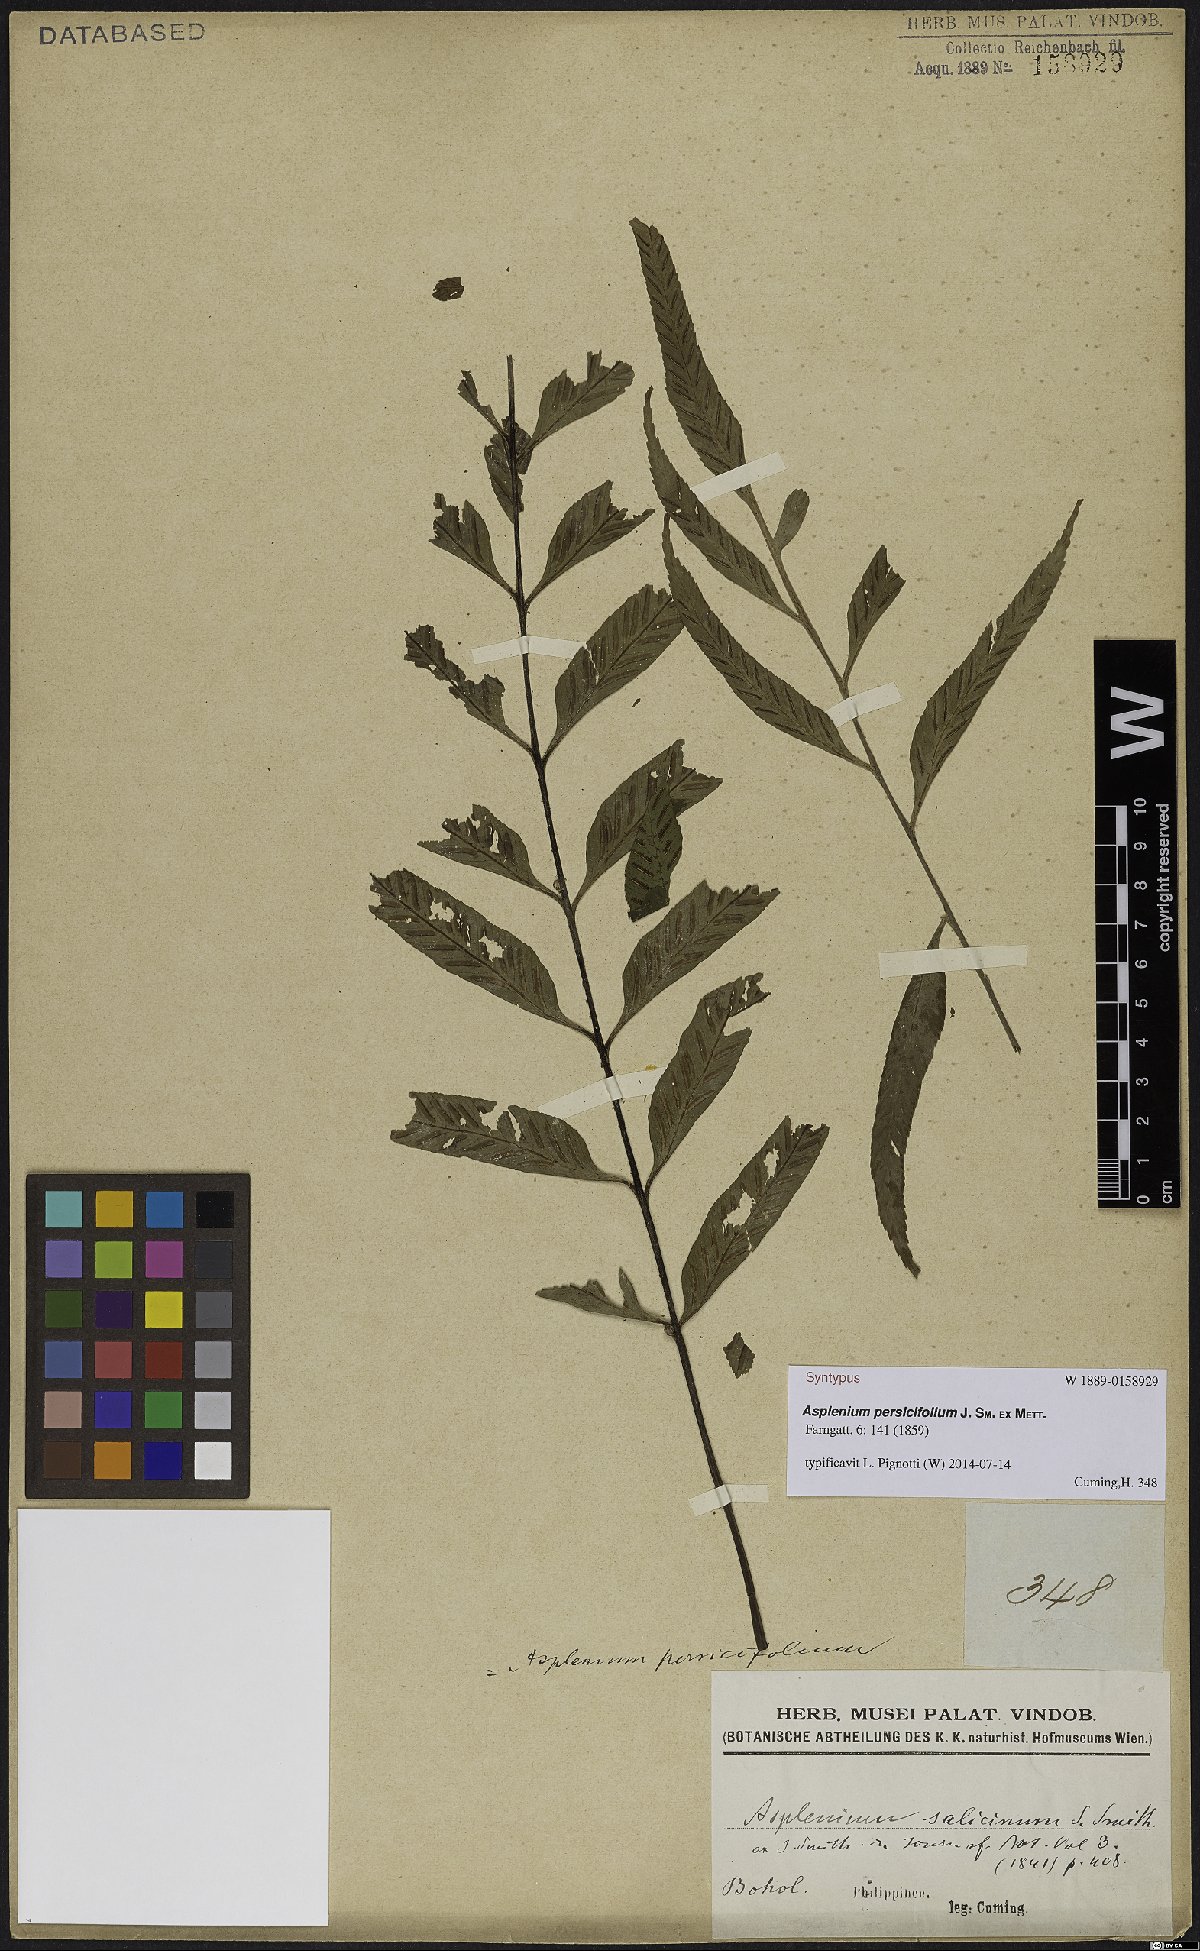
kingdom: Plantae
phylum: Tracheophyta
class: Polypodiopsida
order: Polypodiales
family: Aspleniaceae
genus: Asplenium
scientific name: Asplenium persicifolium
